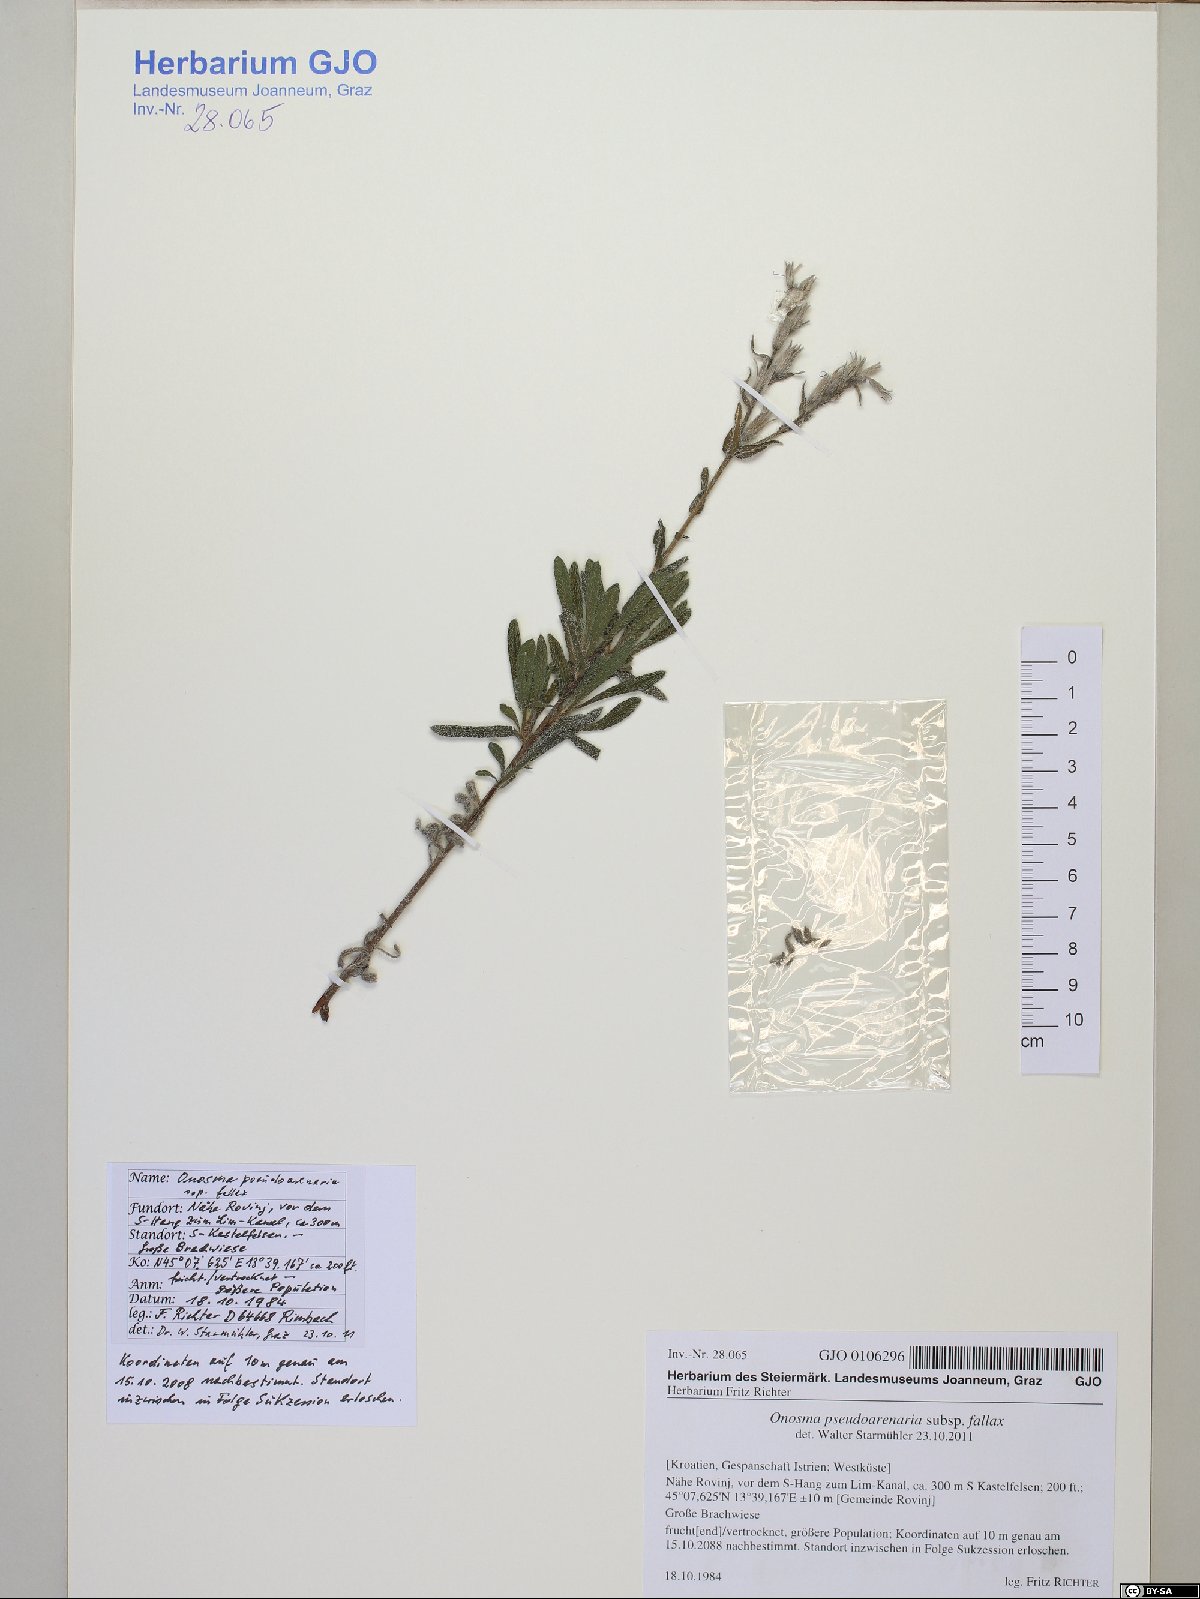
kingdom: Plantae
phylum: Tracheophyta
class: Magnoliopsida
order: Boraginales
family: Boraginaceae
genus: Onosma
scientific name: Onosma pseudoarenaria
